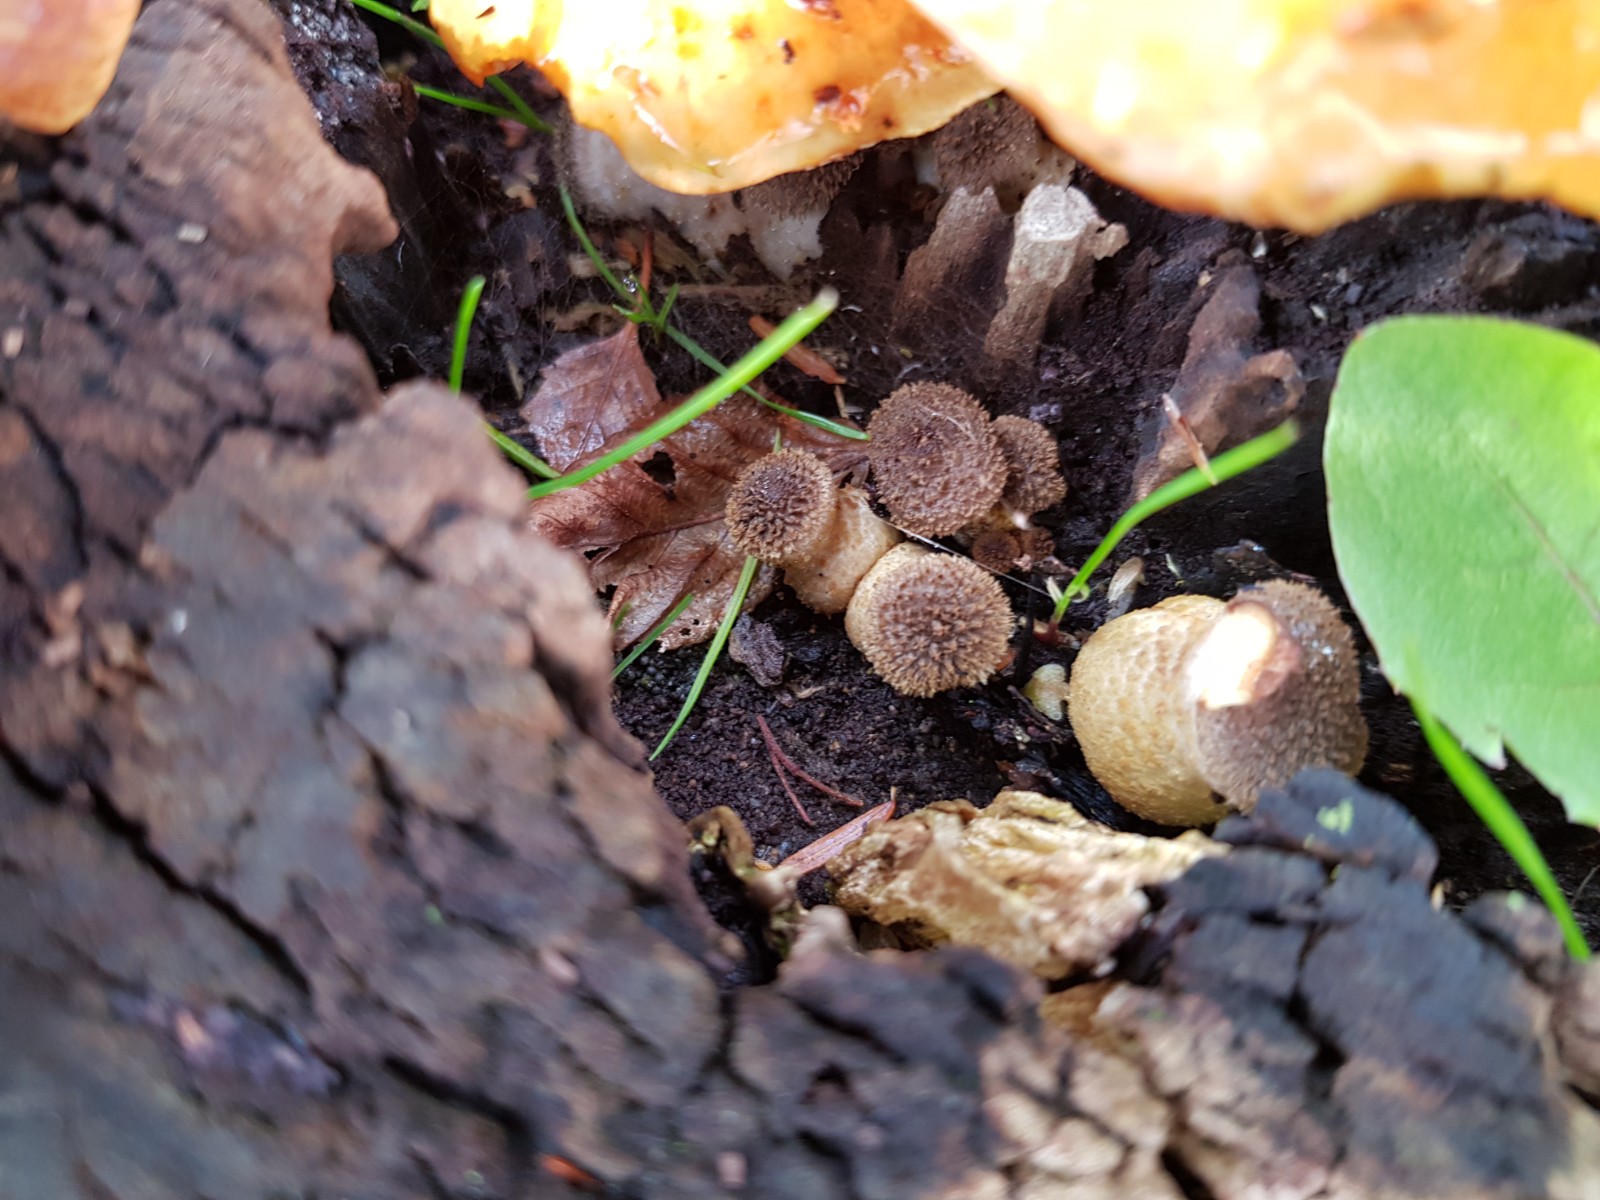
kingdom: Fungi
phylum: Basidiomycota
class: Agaricomycetes
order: Agaricales
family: Physalacriaceae
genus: Armillaria
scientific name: Armillaria
